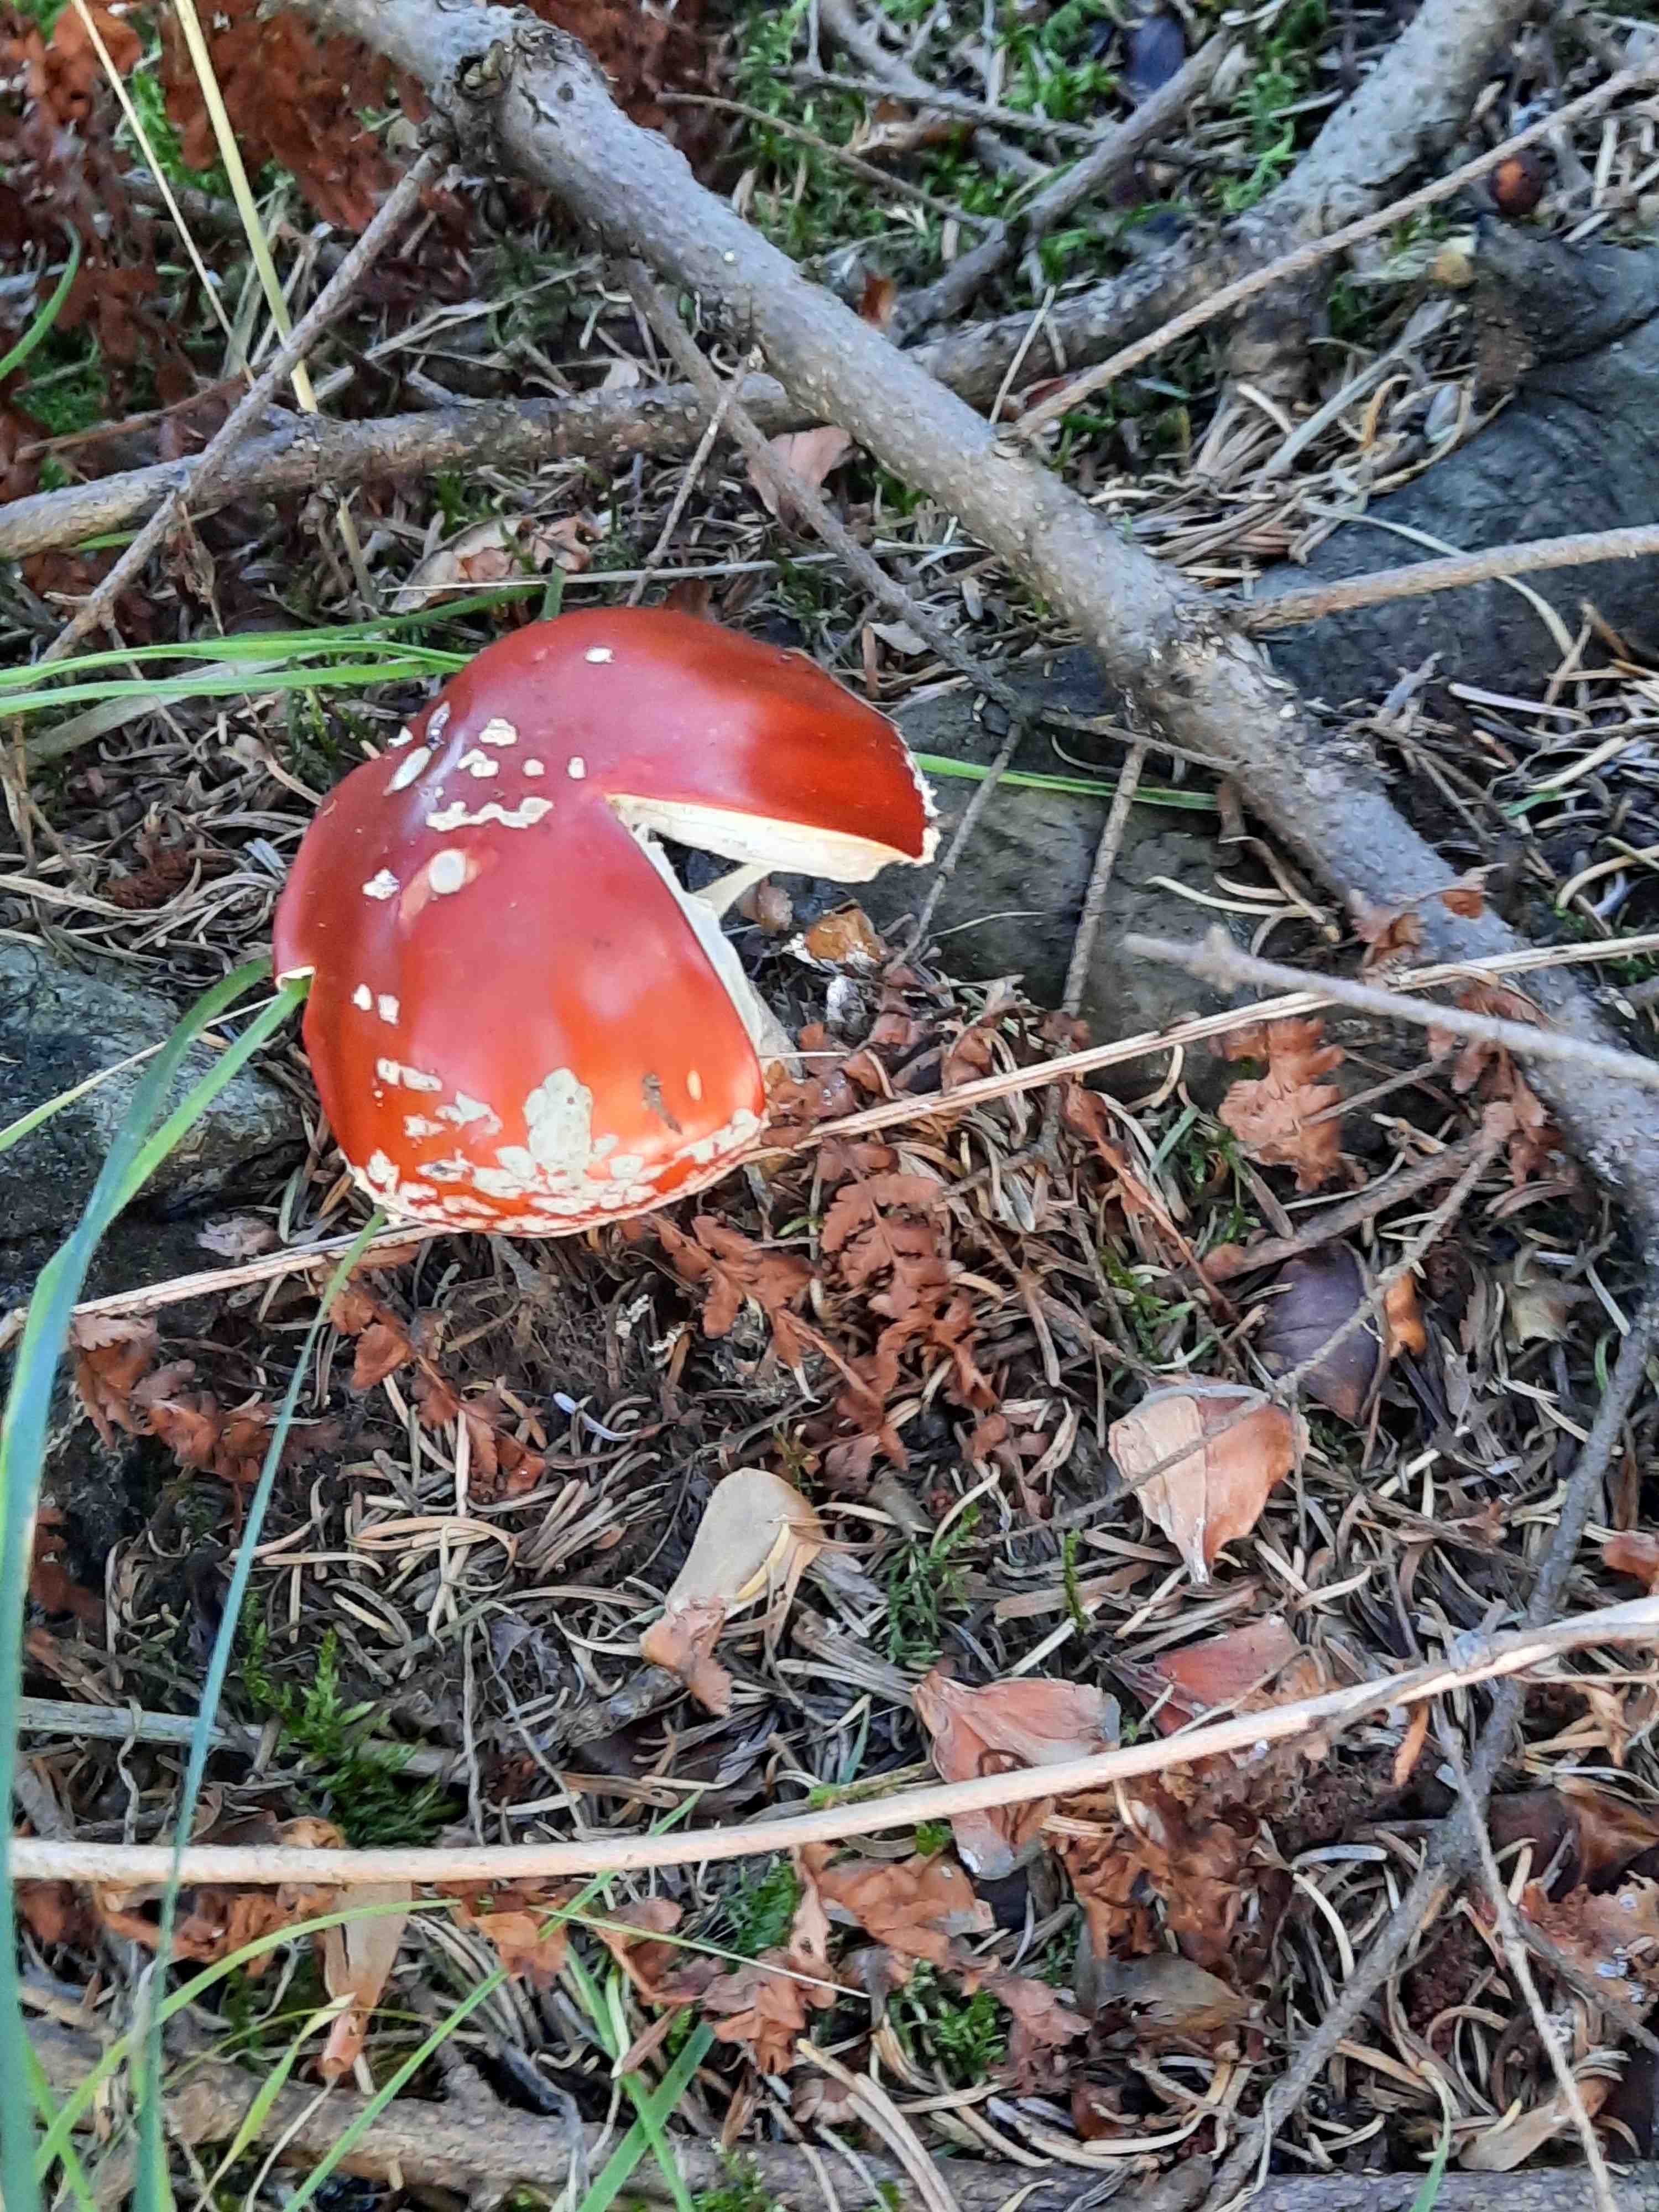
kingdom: Fungi
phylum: Basidiomycota
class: Agaricomycetes
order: Agaricales
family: Amanitaceae
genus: Amanita
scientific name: Amanita muscaria
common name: rød fluesvamp
